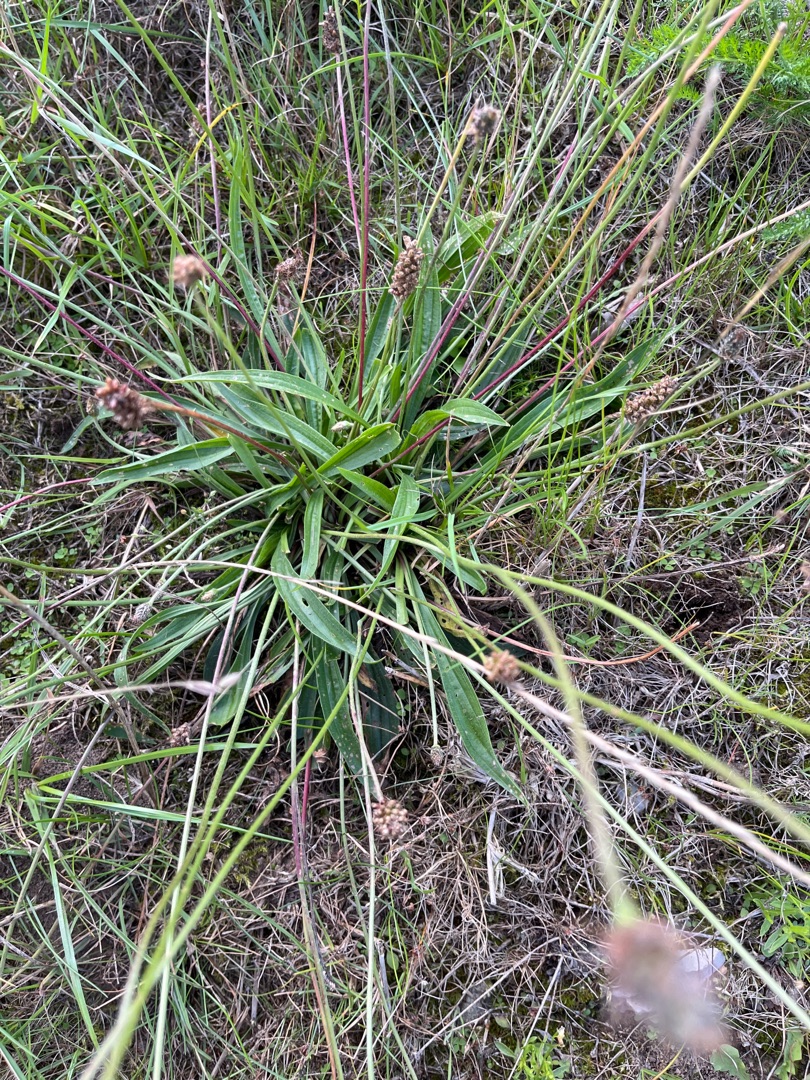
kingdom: Plantae
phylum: Tracheophyta
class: Magnoliopsida
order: Lamiales
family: Plantaginaceae
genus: Plantago
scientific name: Plantago lanceolata
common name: Lancet-vejbred
